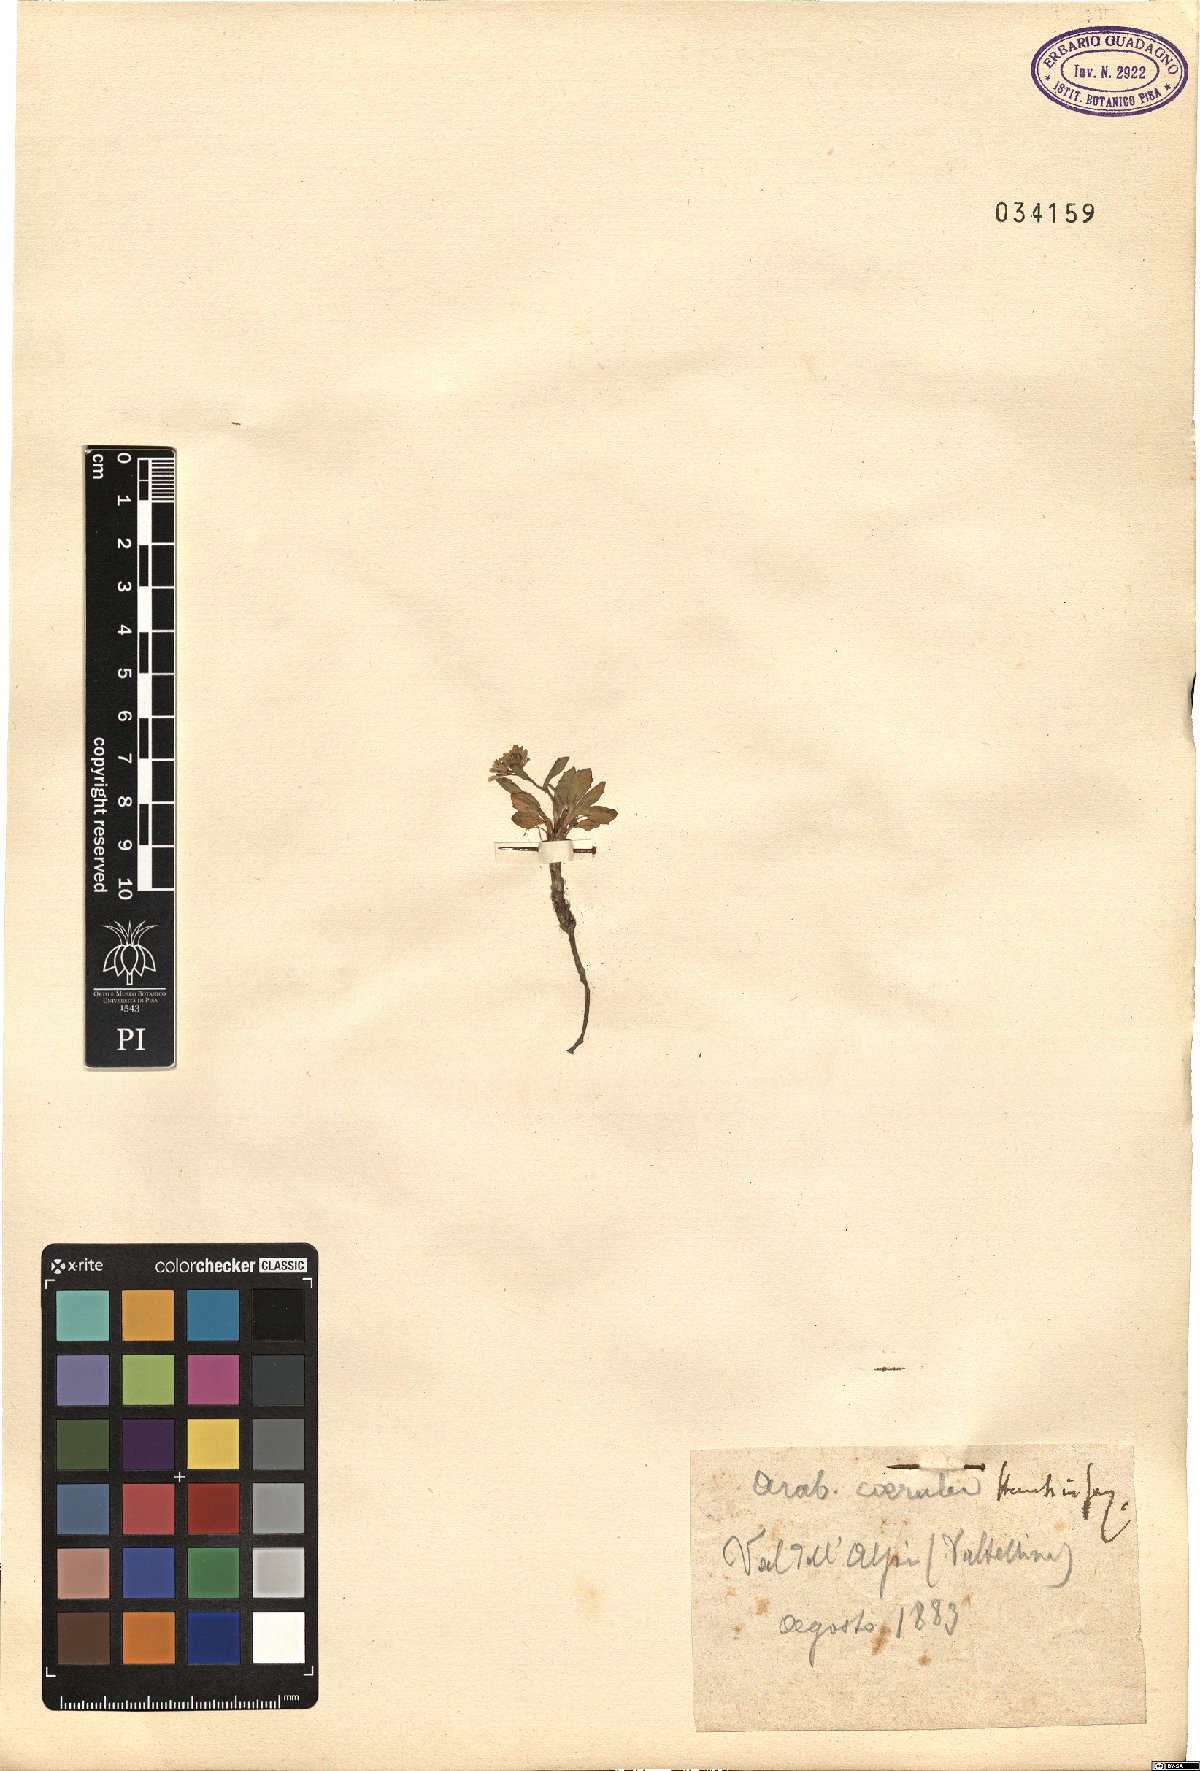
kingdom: Plantae
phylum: Tracheophyta
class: Magnoliopsida
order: Brassicales
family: Brassicaceae
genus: Arabis
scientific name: Arabis caerulea
